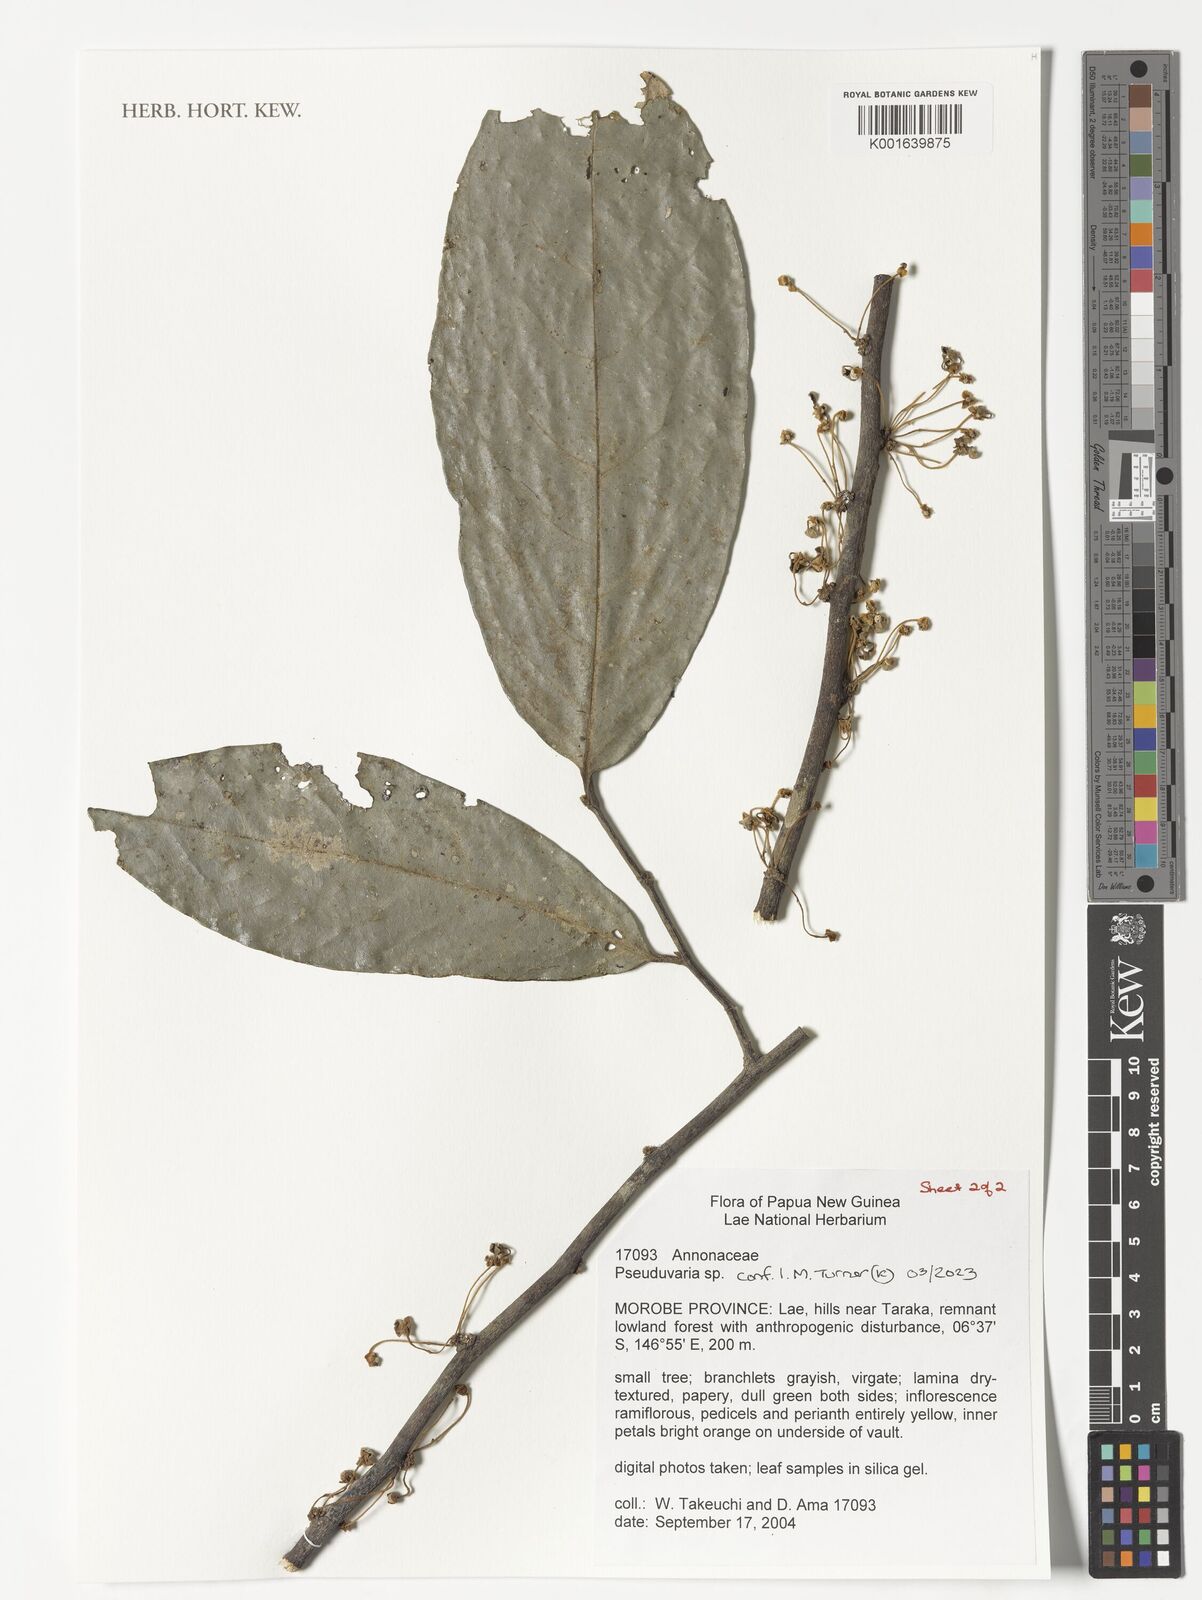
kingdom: Plantae
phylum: Tracheophyta
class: Magnoliopsida
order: Magnoliales
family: Annonaceae
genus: Pseuduvaria
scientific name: Pseuduvaria
